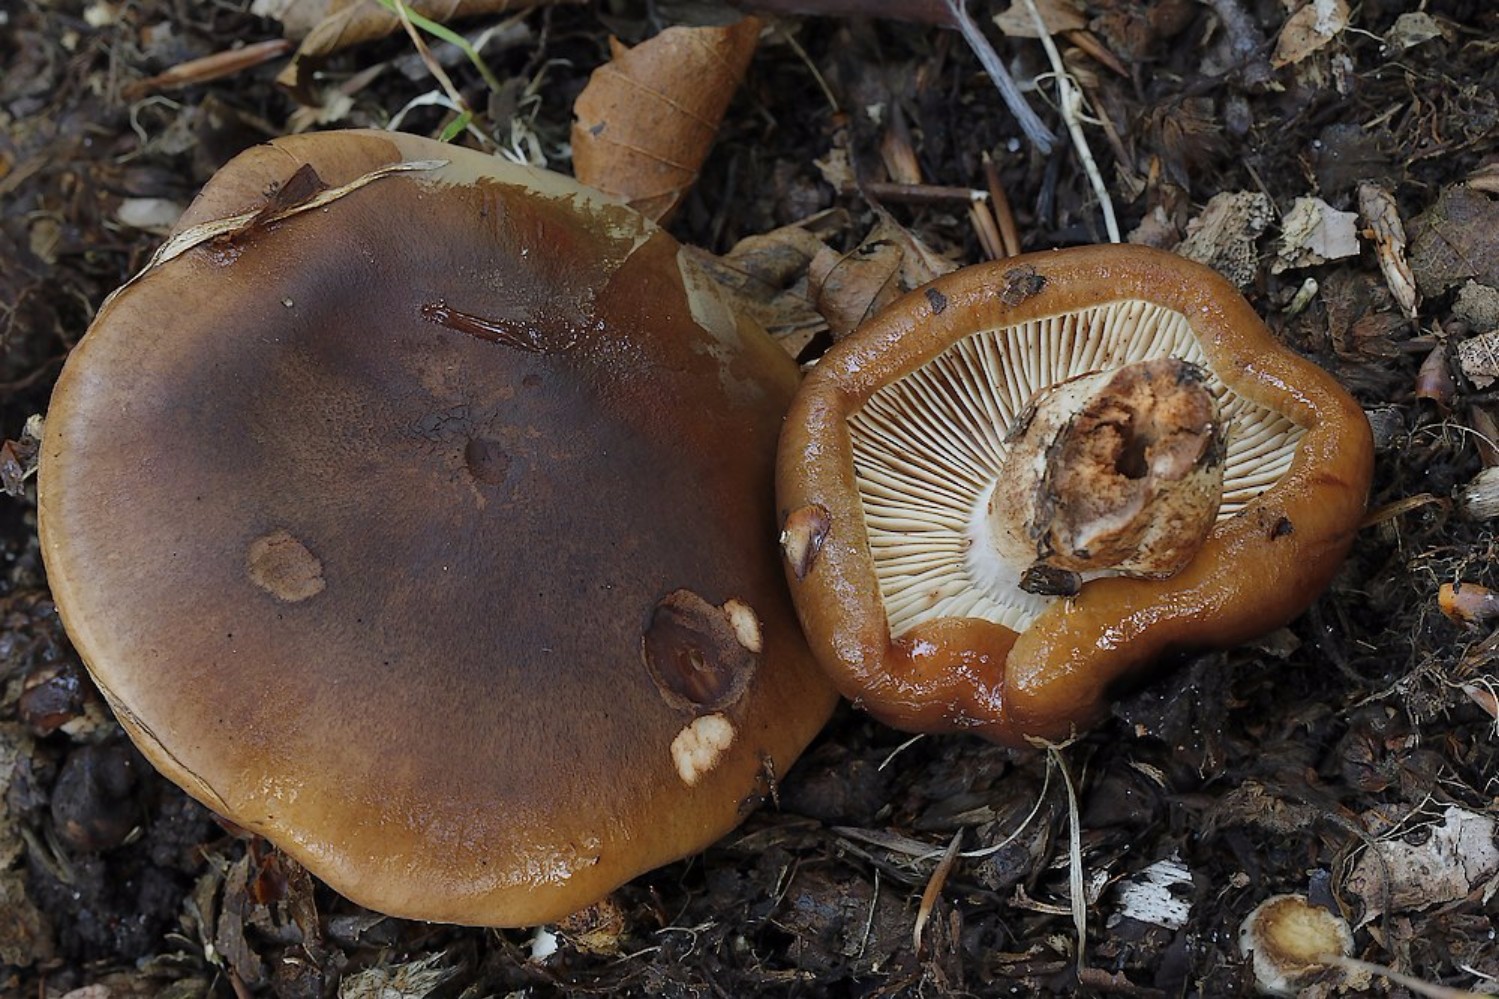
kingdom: Fungi
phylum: Basidiomycota
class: Agaricomycetes
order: Agaricales
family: Tricholomataceae
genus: Tricholoma
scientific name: Tricholoma ustale
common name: sveden ridderhat
